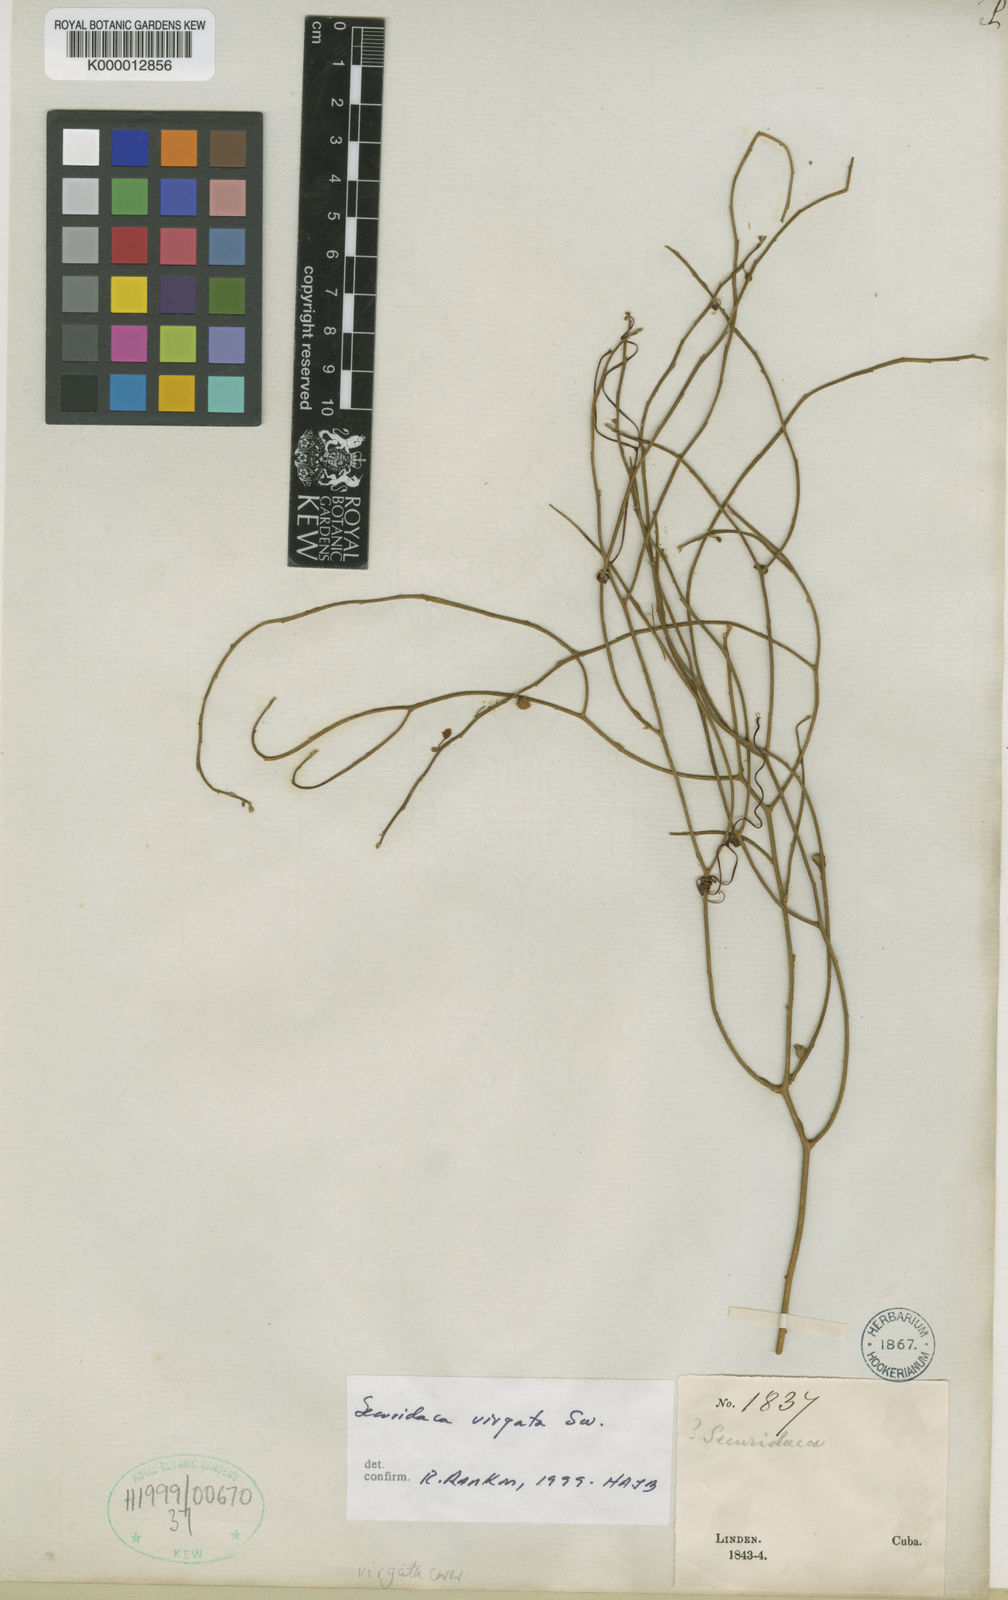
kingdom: Plantae
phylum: Tracheophyta
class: Magnoliopsida
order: Fabales
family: Polygalaceae
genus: Securidaca
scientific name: Securidaca virgata
